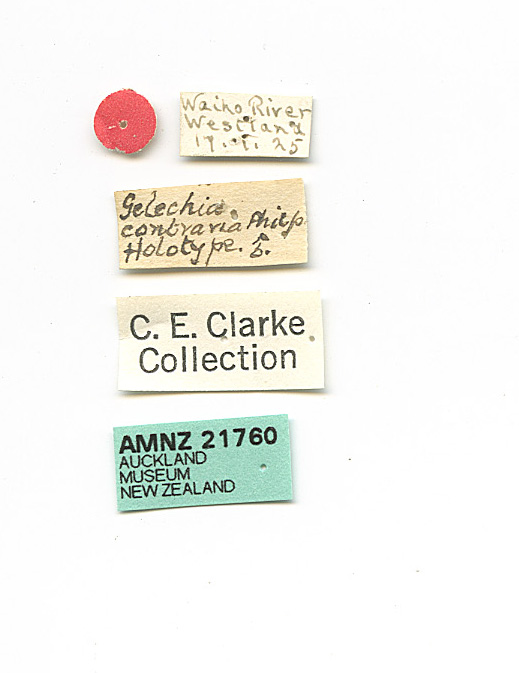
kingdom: Animalia
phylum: Arthropoda
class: Insecta
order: Lepidoptera
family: Gelechiidae
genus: Kiwaia
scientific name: Kiwaia contraria
